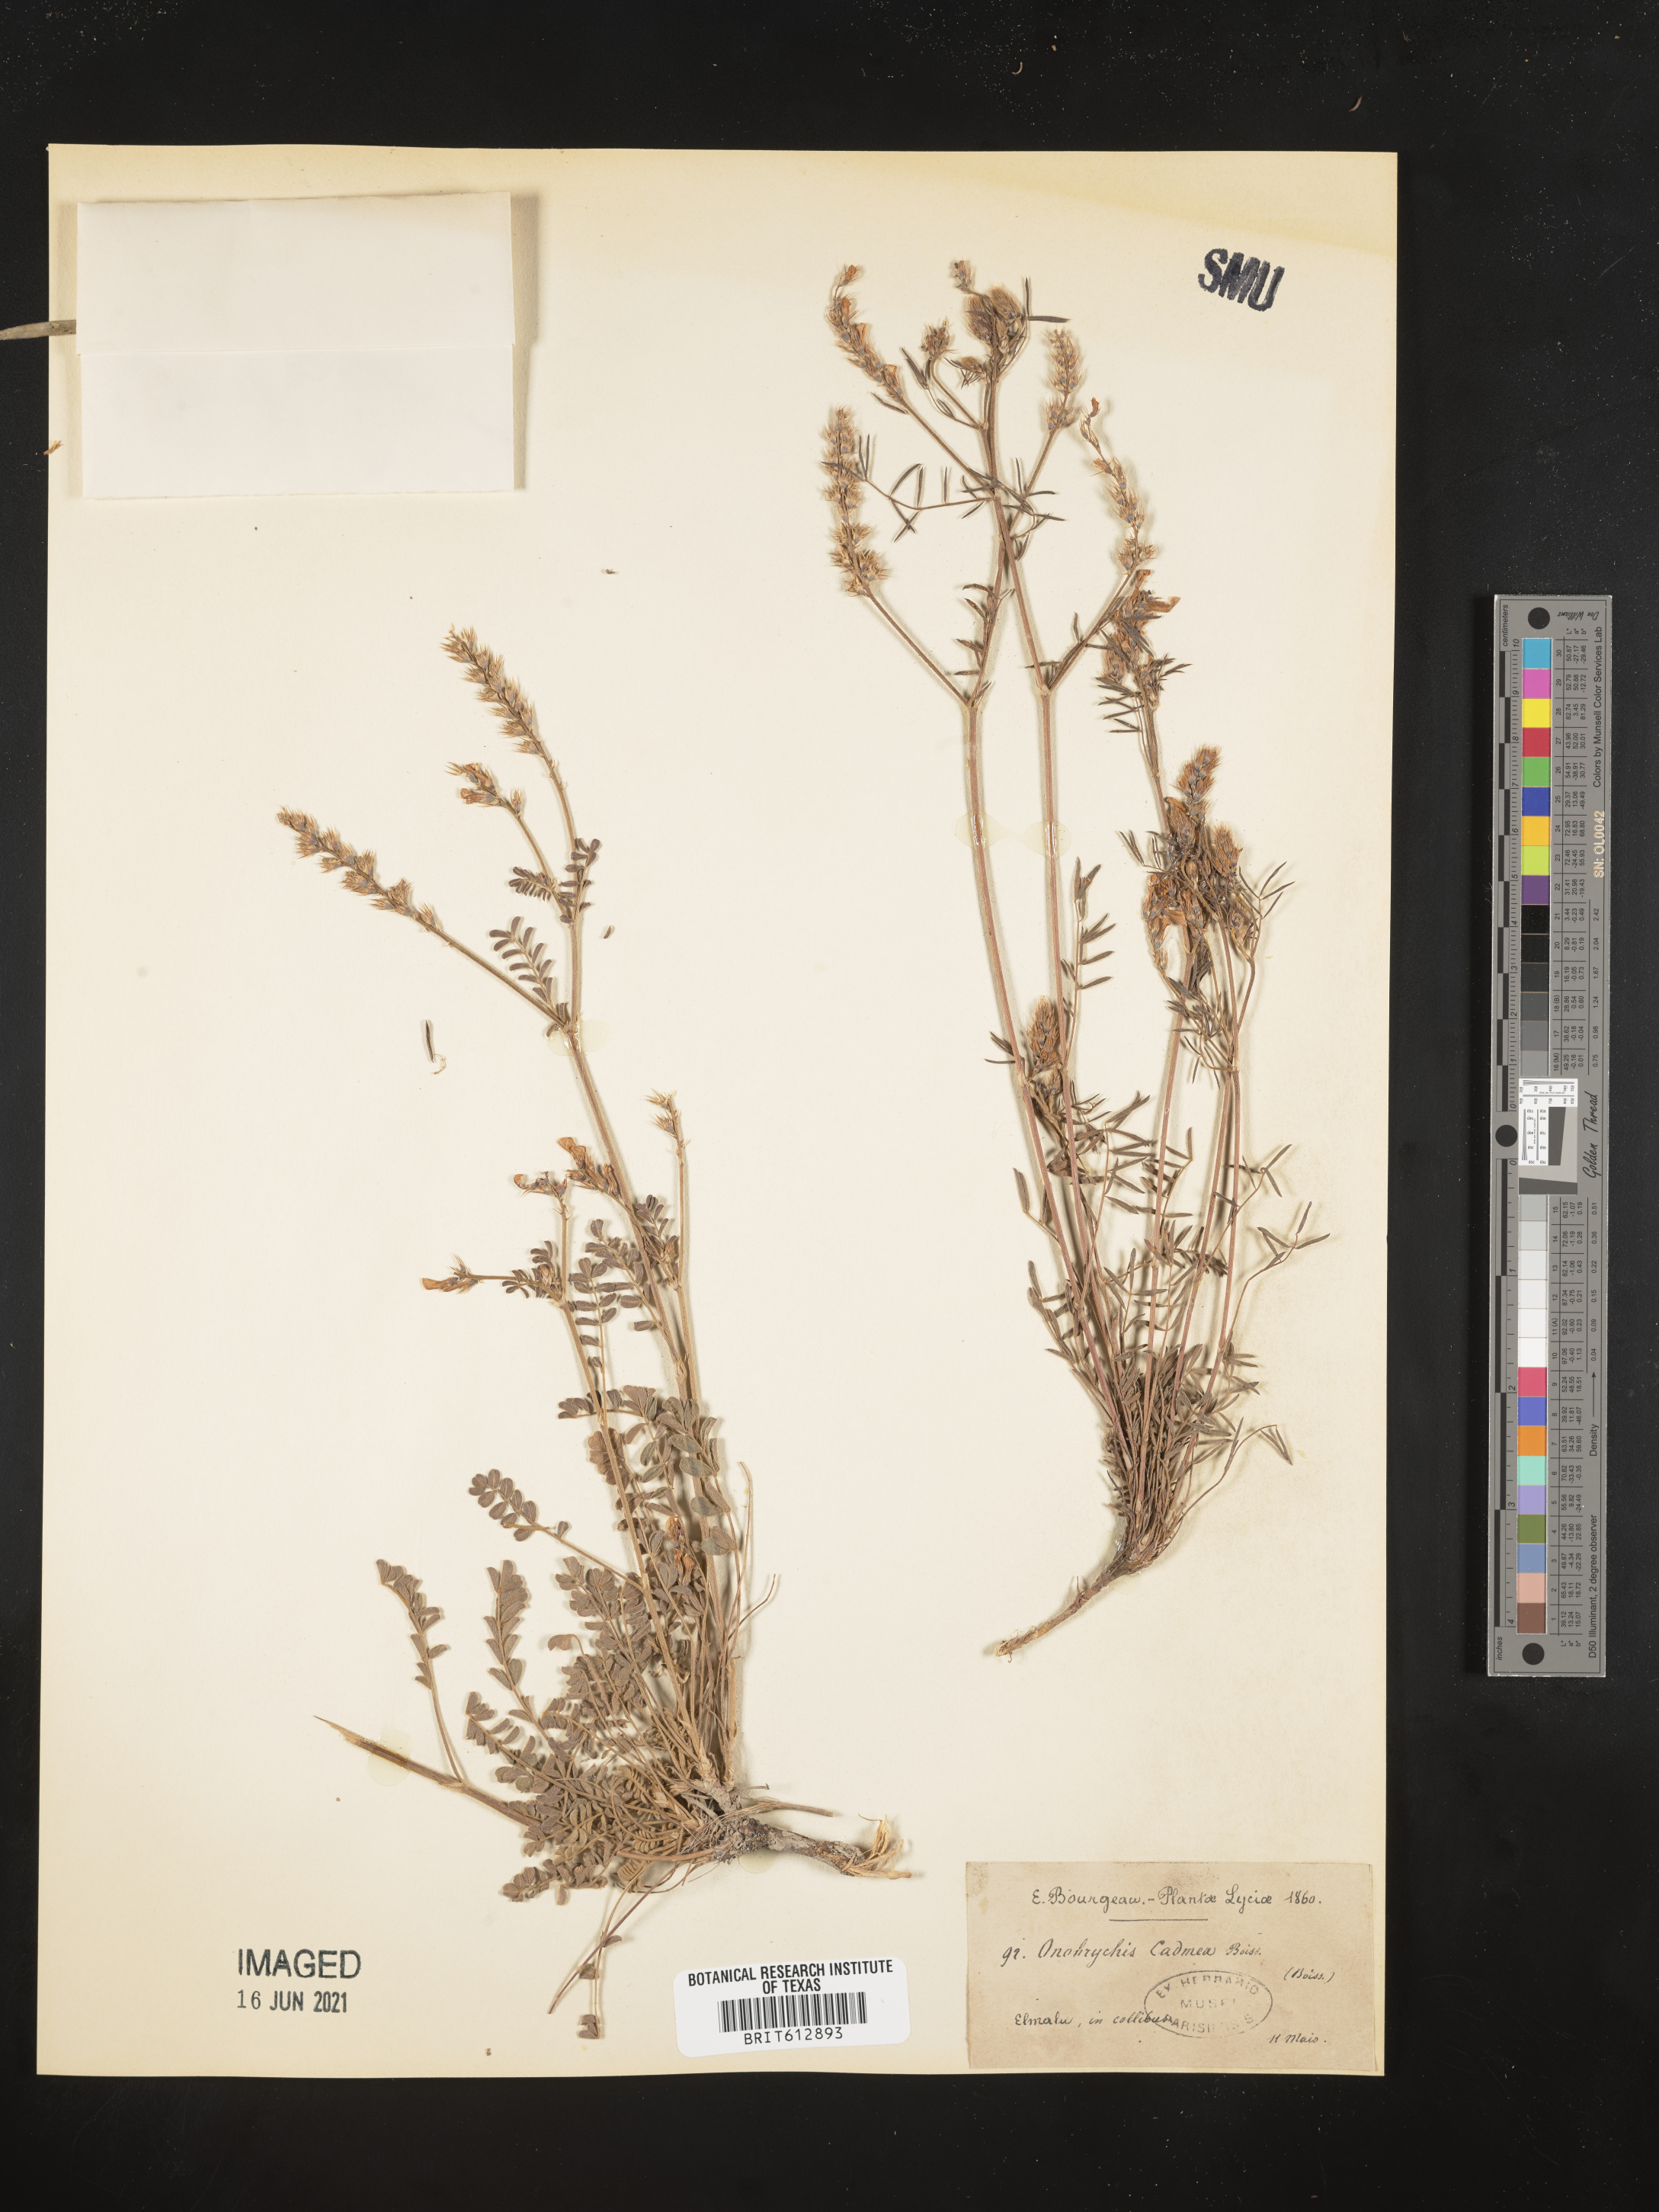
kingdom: Plantae
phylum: Tracheophyta
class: Magnoliopsida
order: Fabales
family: Fabaceae
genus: Onobrychis
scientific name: Onobrychis montana
